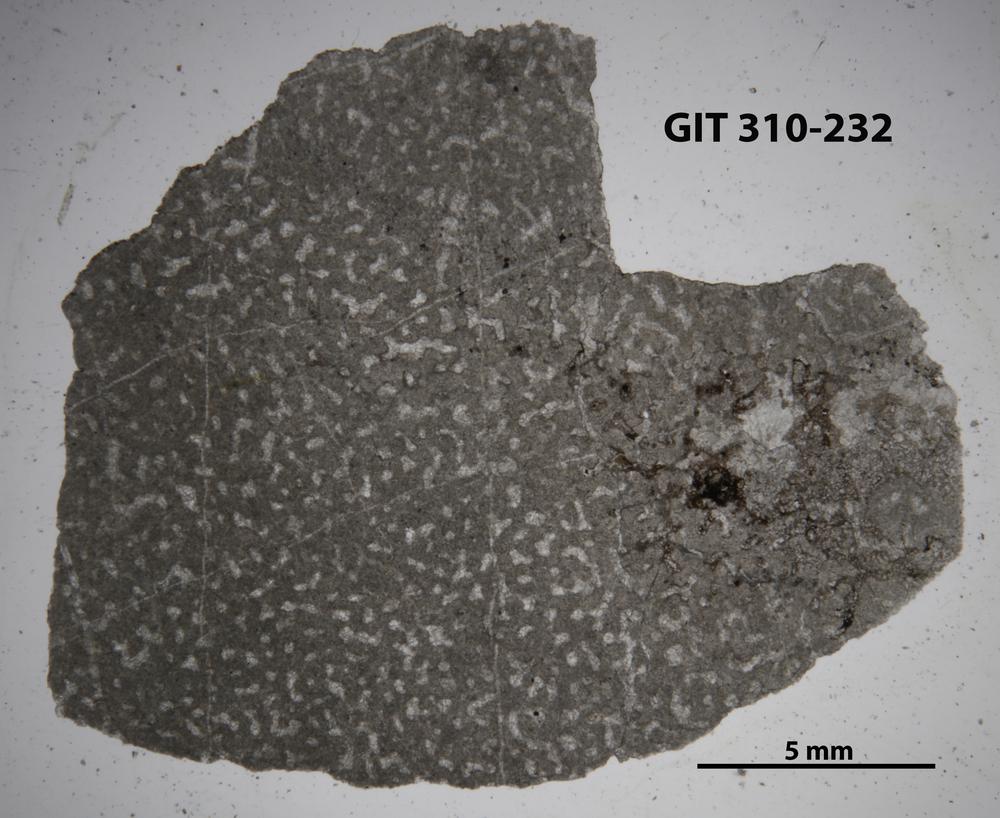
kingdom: Animalia
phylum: Porifera
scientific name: Porifera
